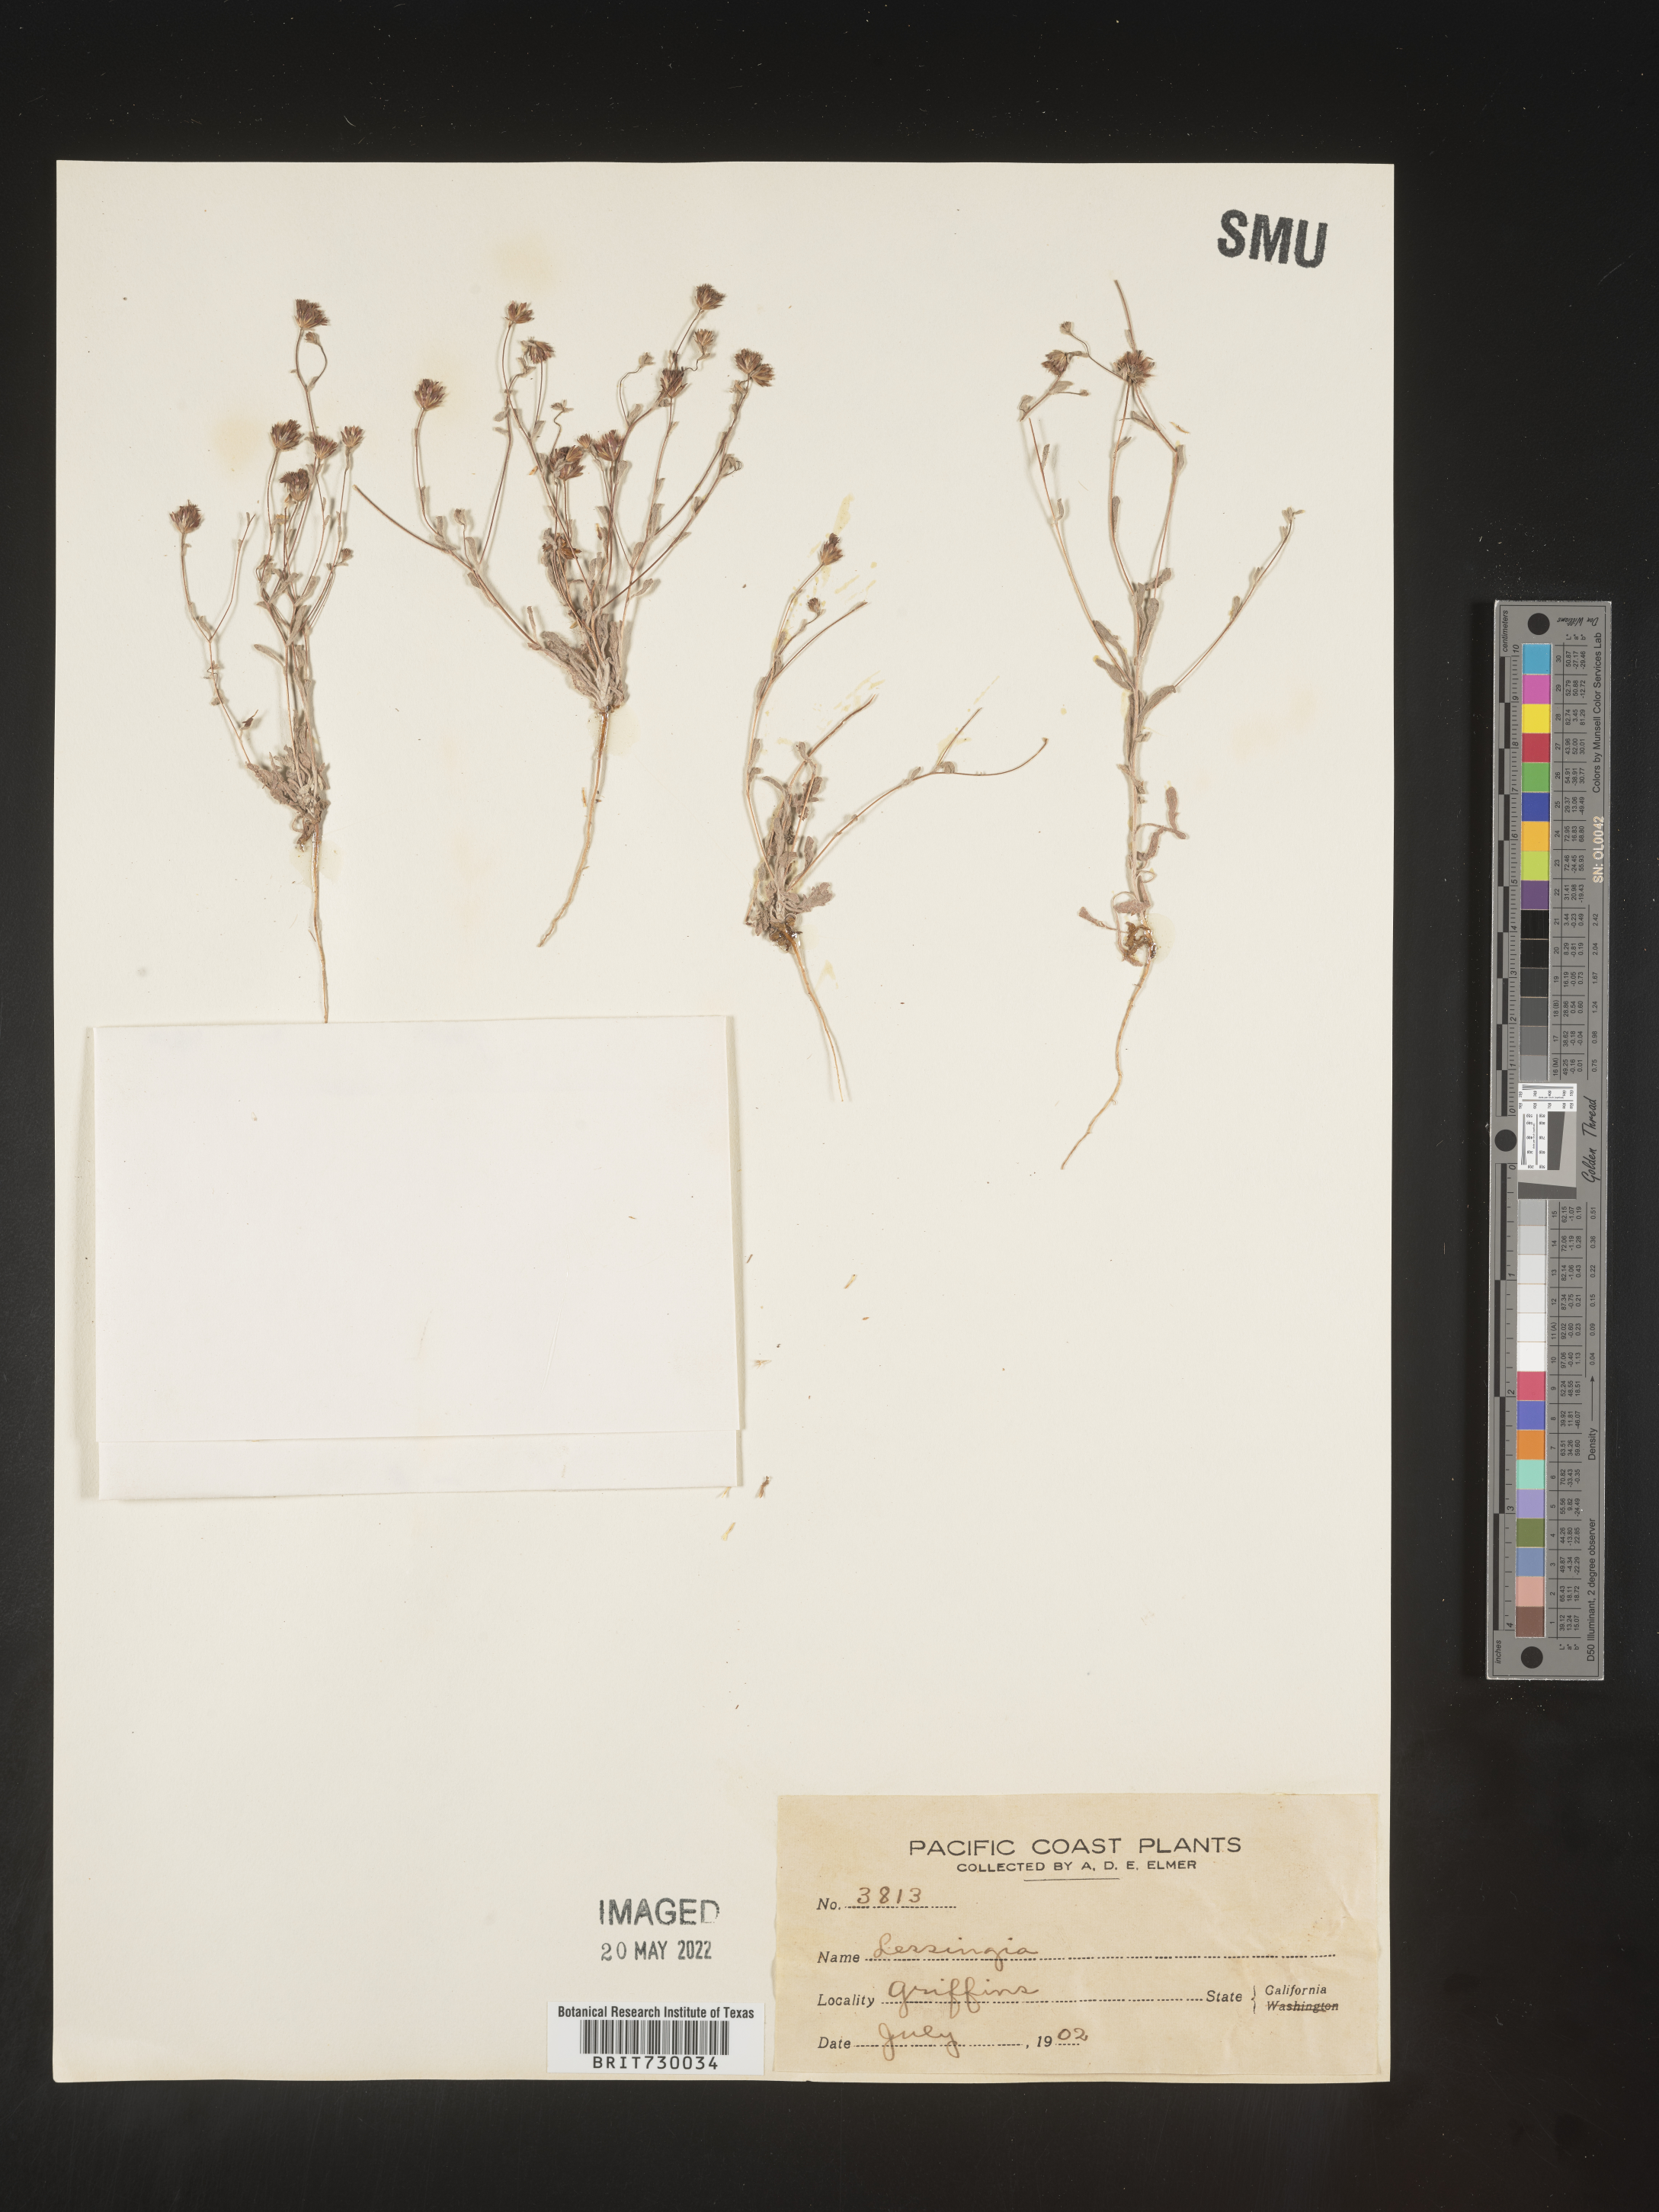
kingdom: Plantae
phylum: Tracheophyta
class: Magnoliopsida
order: Asterales
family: Asteraceae
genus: Lessingia
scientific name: Lessingia
